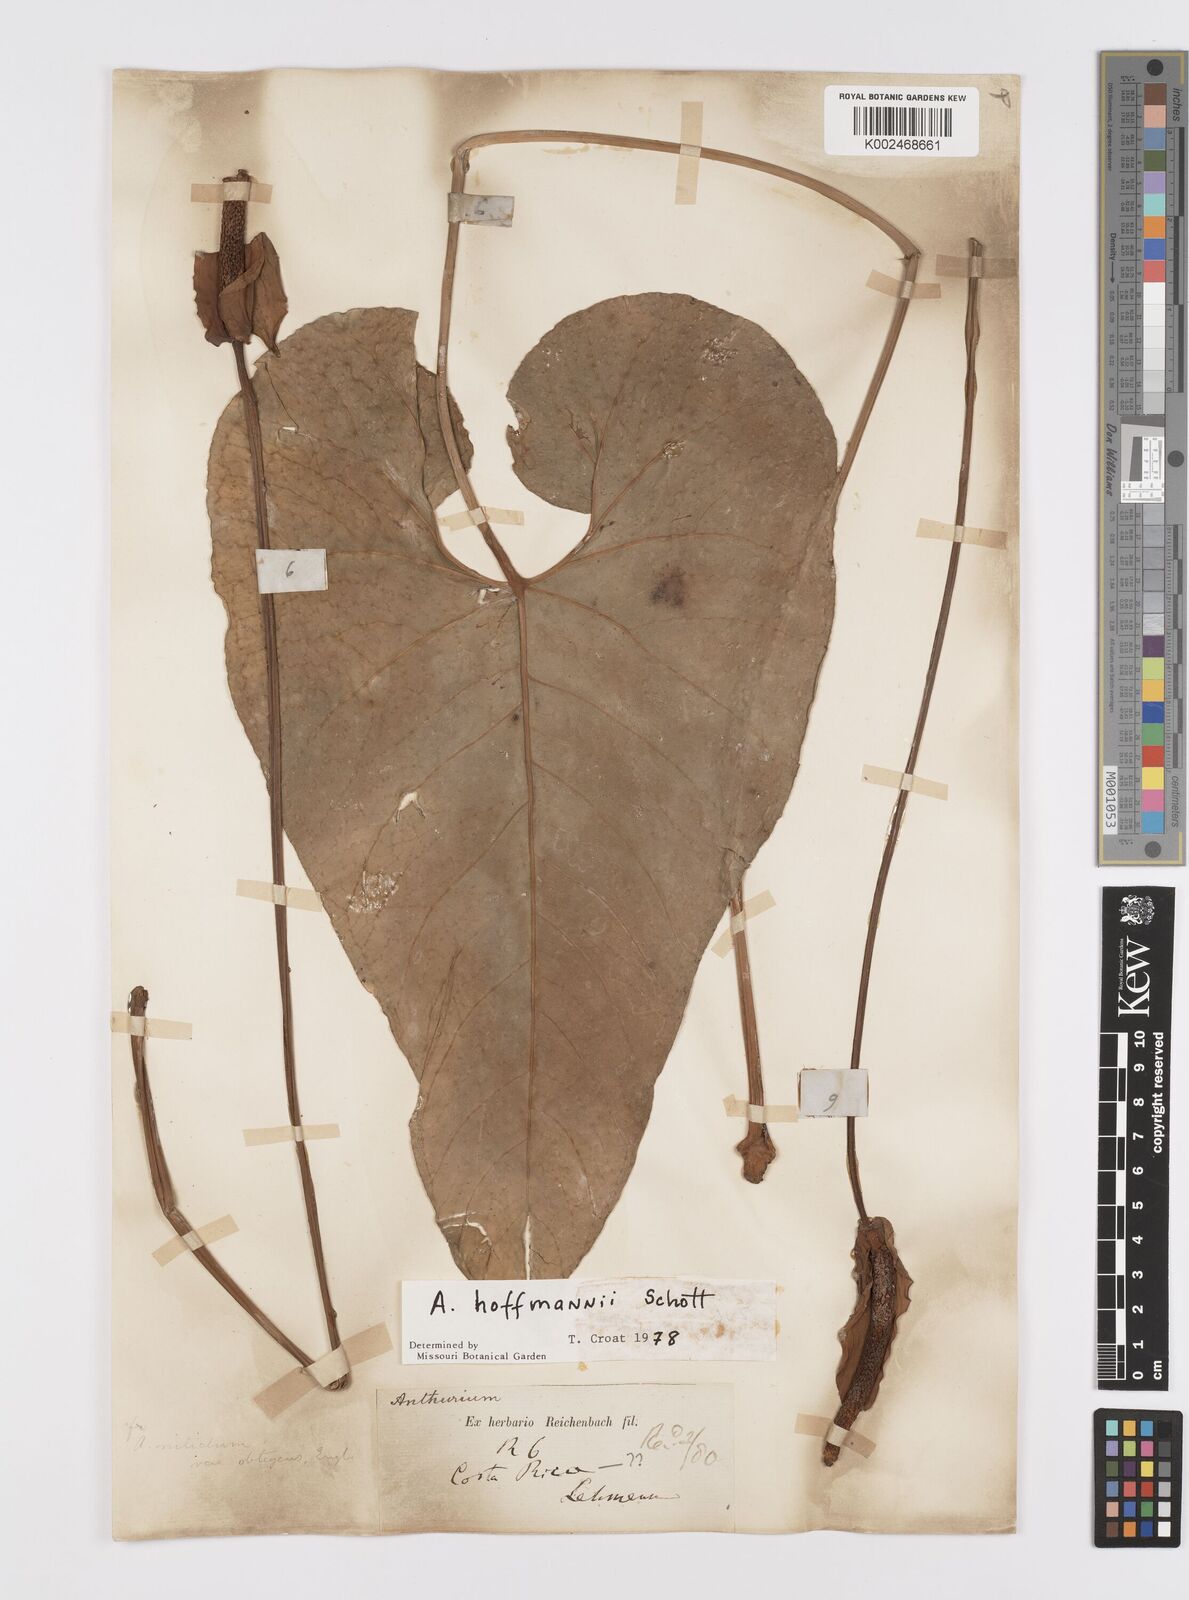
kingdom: Plantae
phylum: Tracheophyta
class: Liliopsida
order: Alismatales
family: Araceae
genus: Anthurium
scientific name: Anthurium hoffmannii
